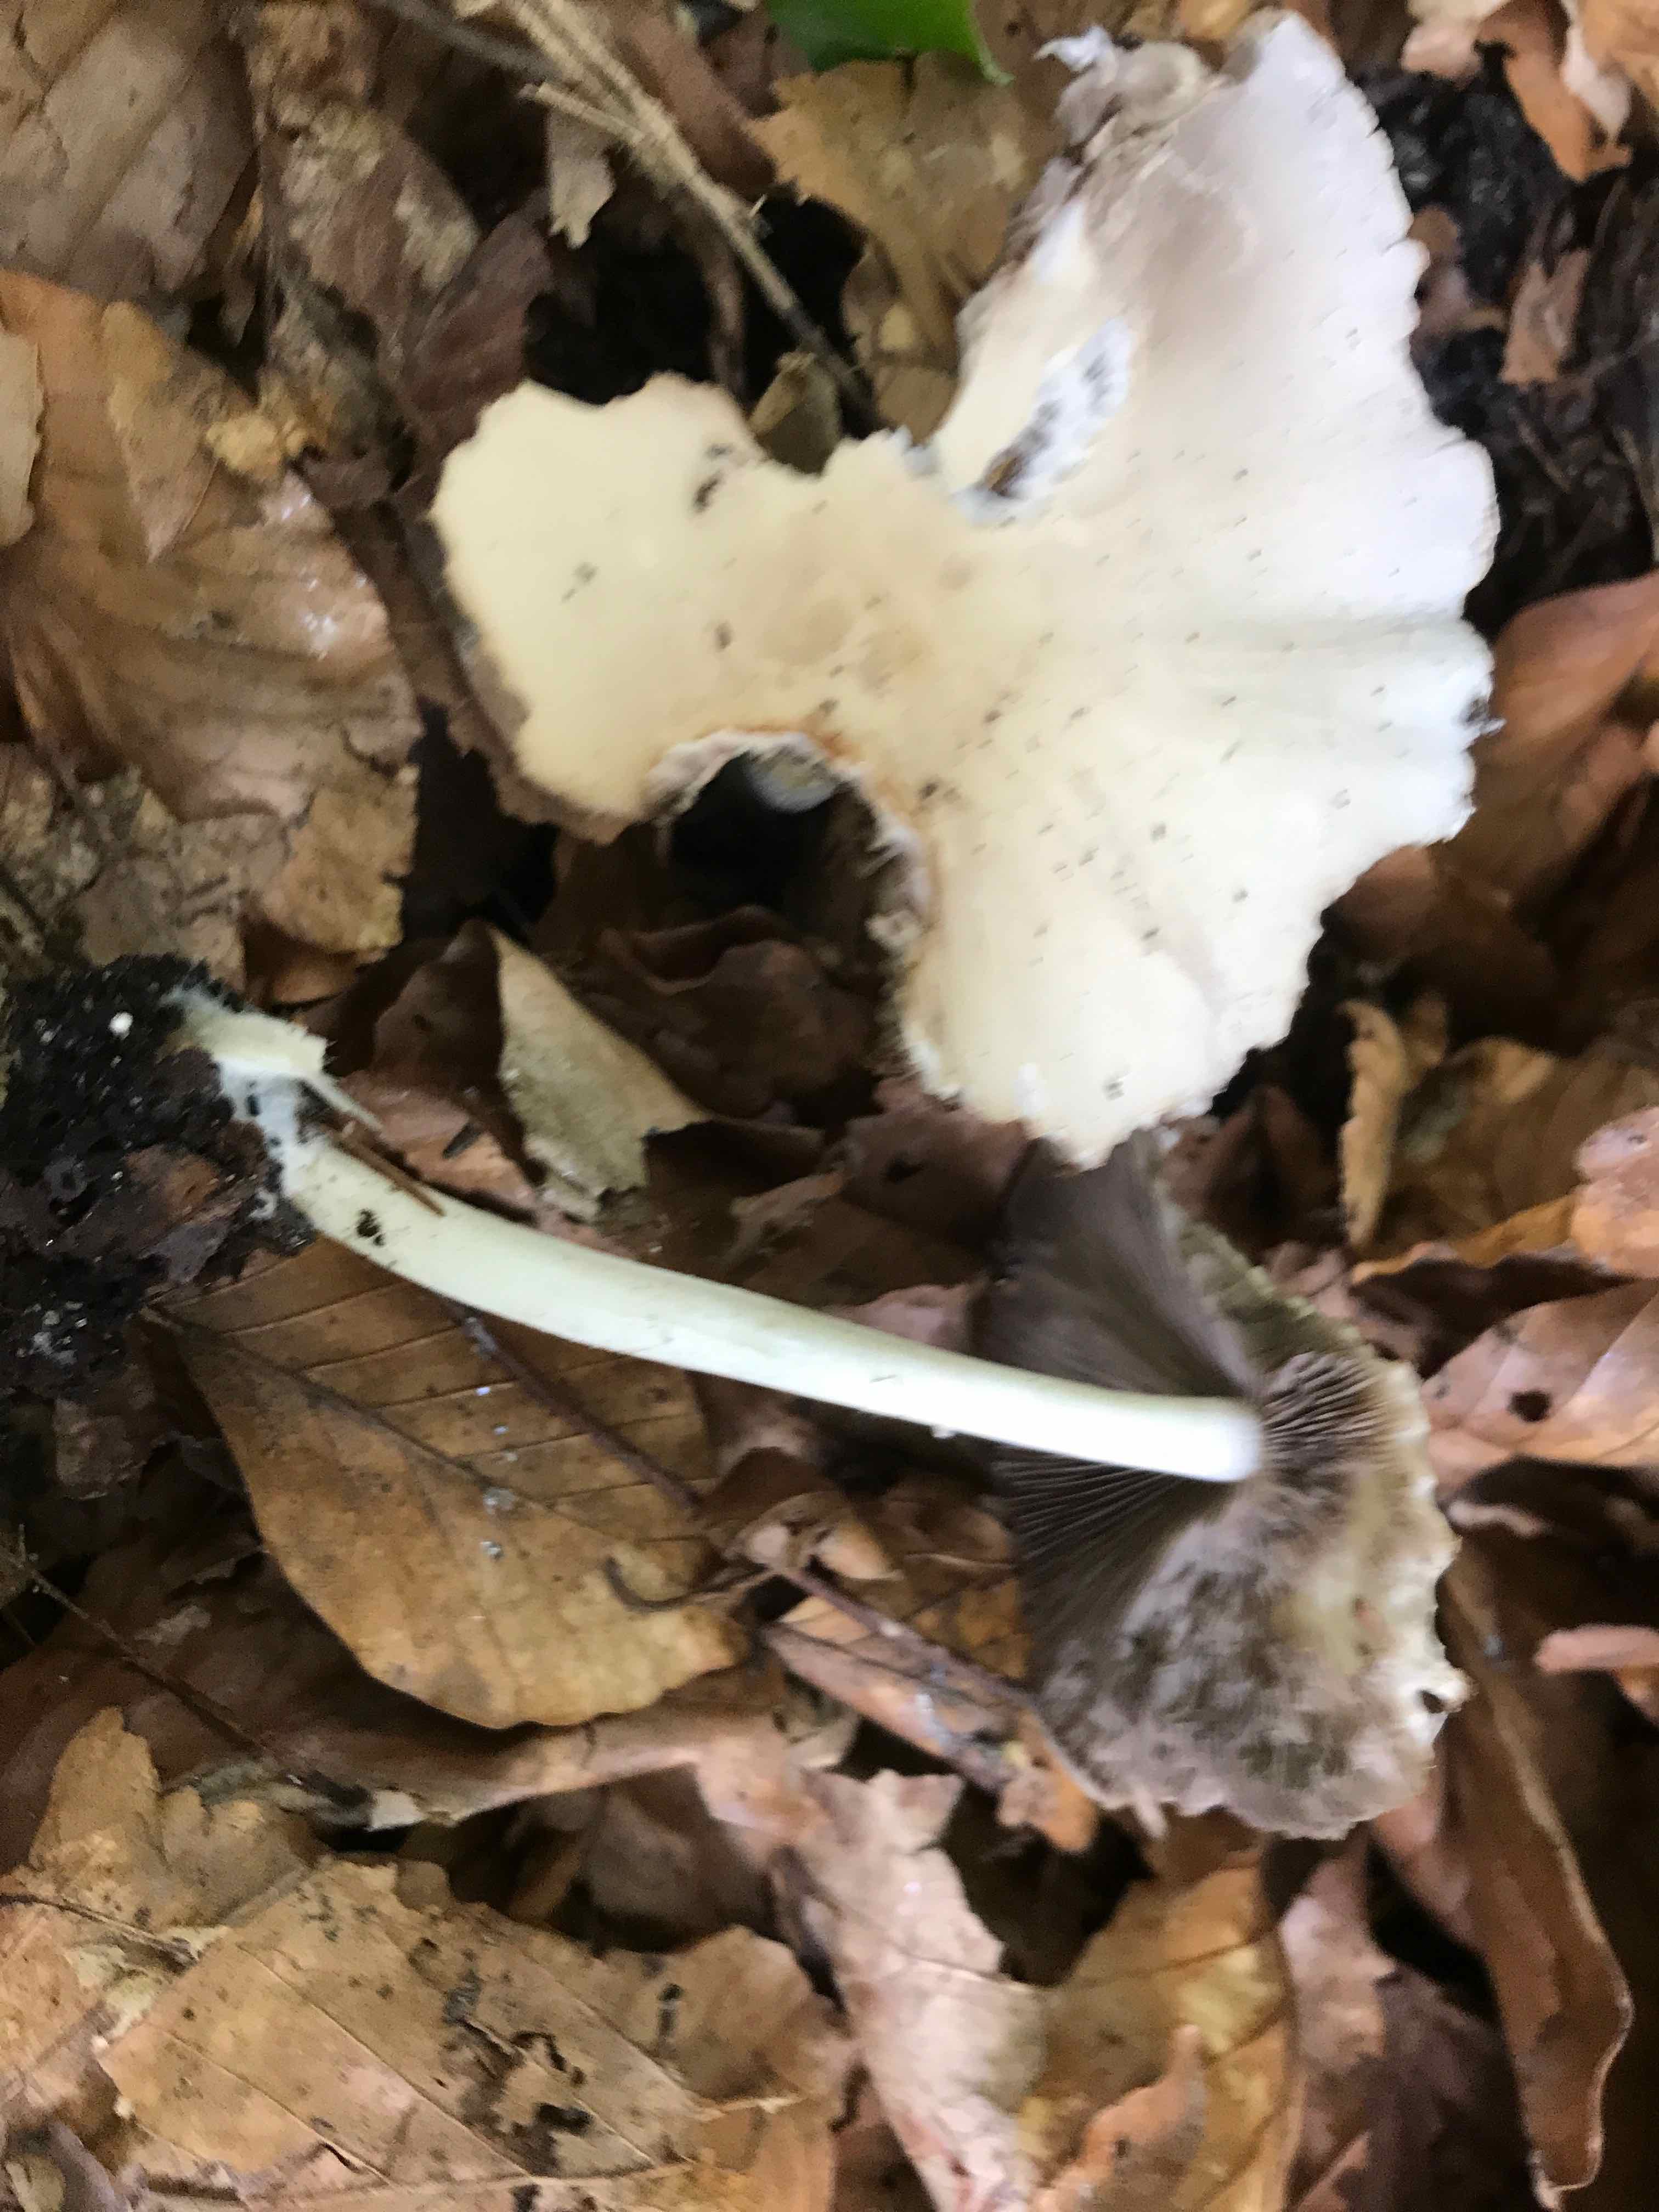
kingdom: Fungi
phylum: Basidiomycota
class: Agaricomycetes
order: Agaricales
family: Psathyrellaceae
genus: Candolleomyces
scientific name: Candolleomyces candolleanus
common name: Candolles mørkhat
